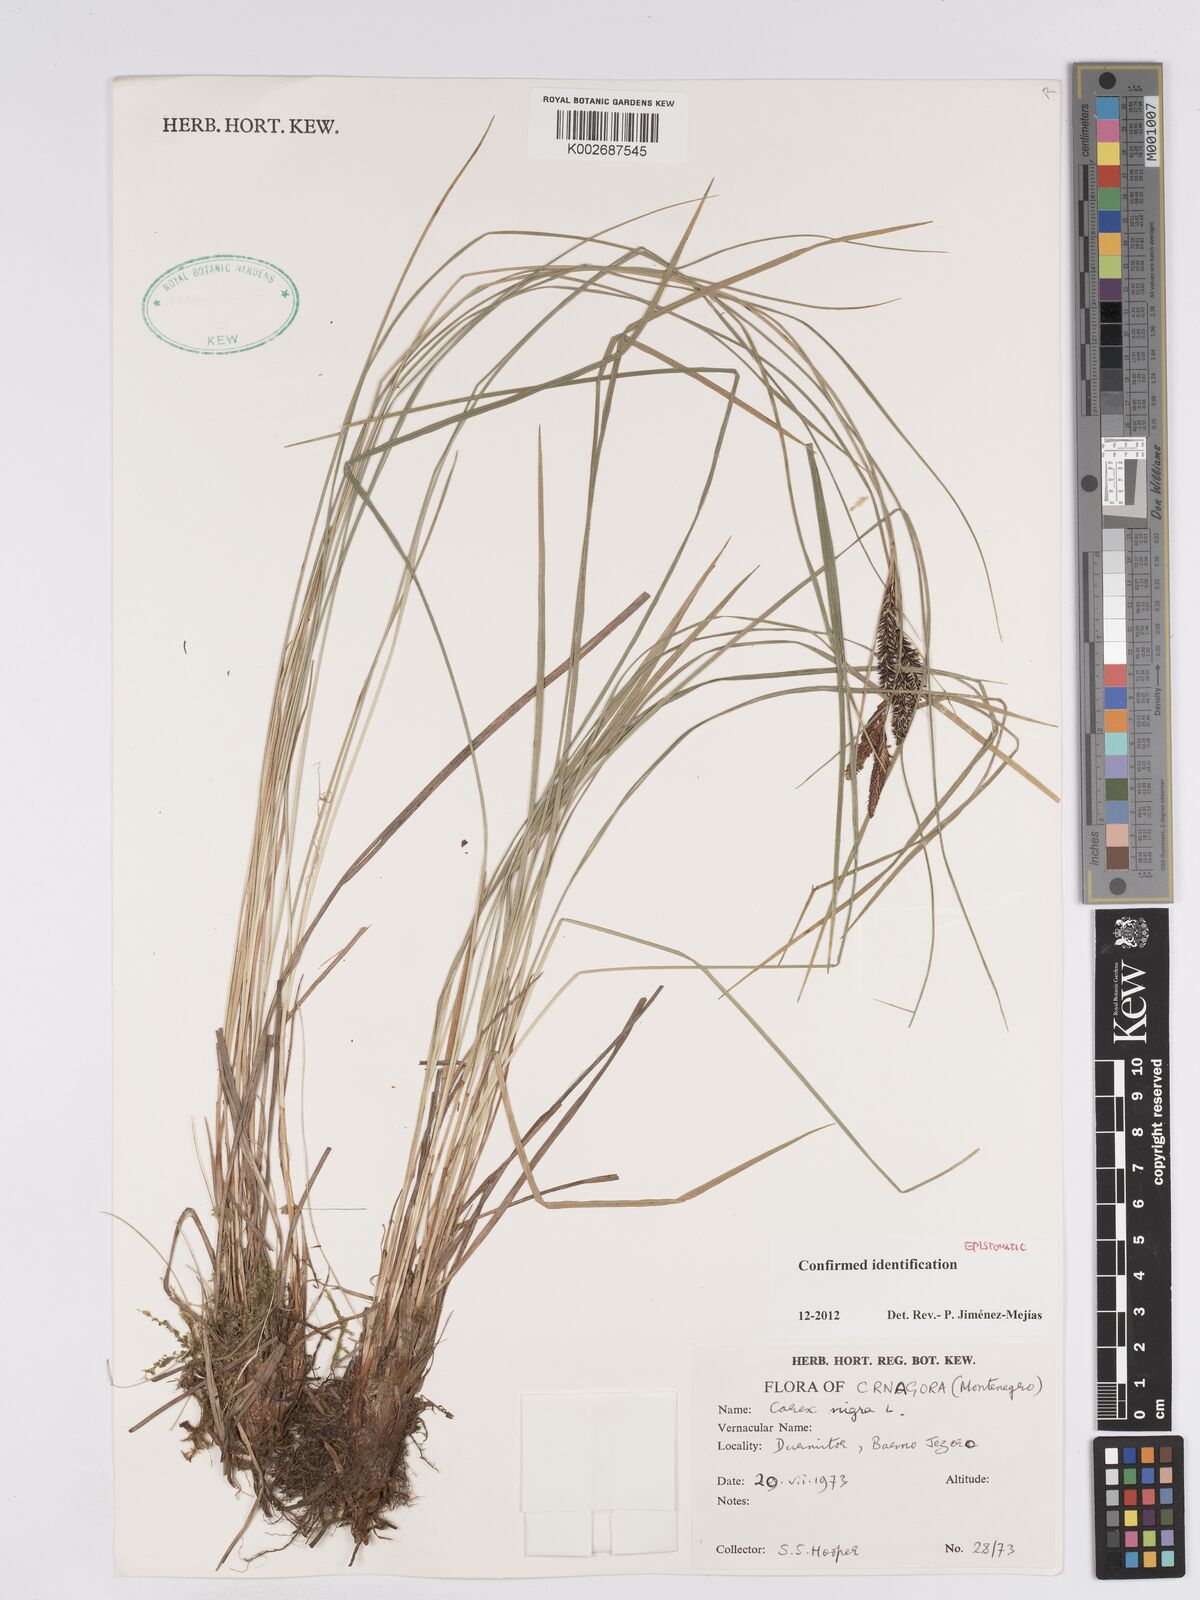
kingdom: Plantae
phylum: Tracheophyta
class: Liliopsida
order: Poales
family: Cyperaceae
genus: Carex
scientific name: Carex nigra
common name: Common sedge
